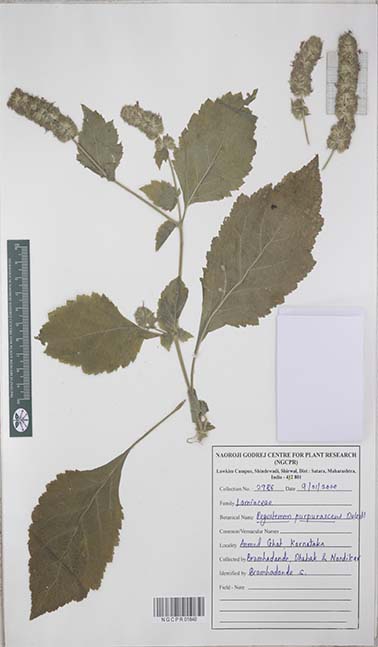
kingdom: Plantae
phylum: Tracheophyta
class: Magnoliopsida
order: Lamiales
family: Lamiaceae
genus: Pogostemon
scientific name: Pogostemon purpurascens
